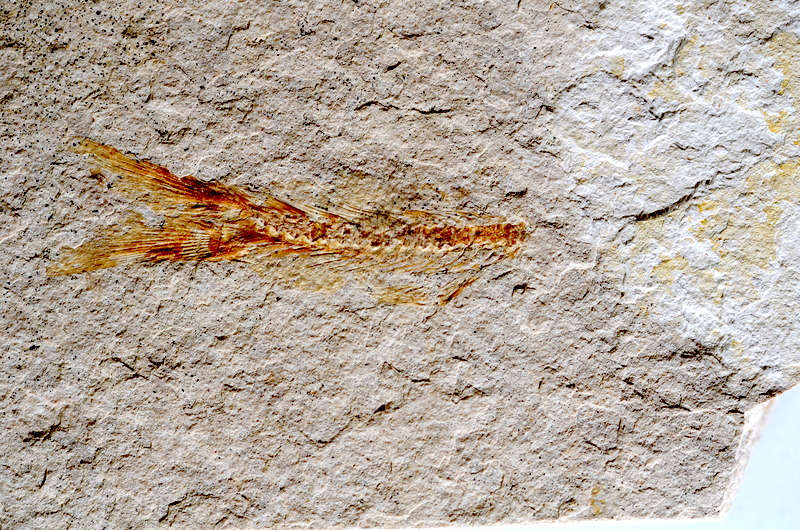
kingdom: Animalia
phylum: Chordata
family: Ascalaboidae
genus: Tharsis
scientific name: Tharsis dubius
